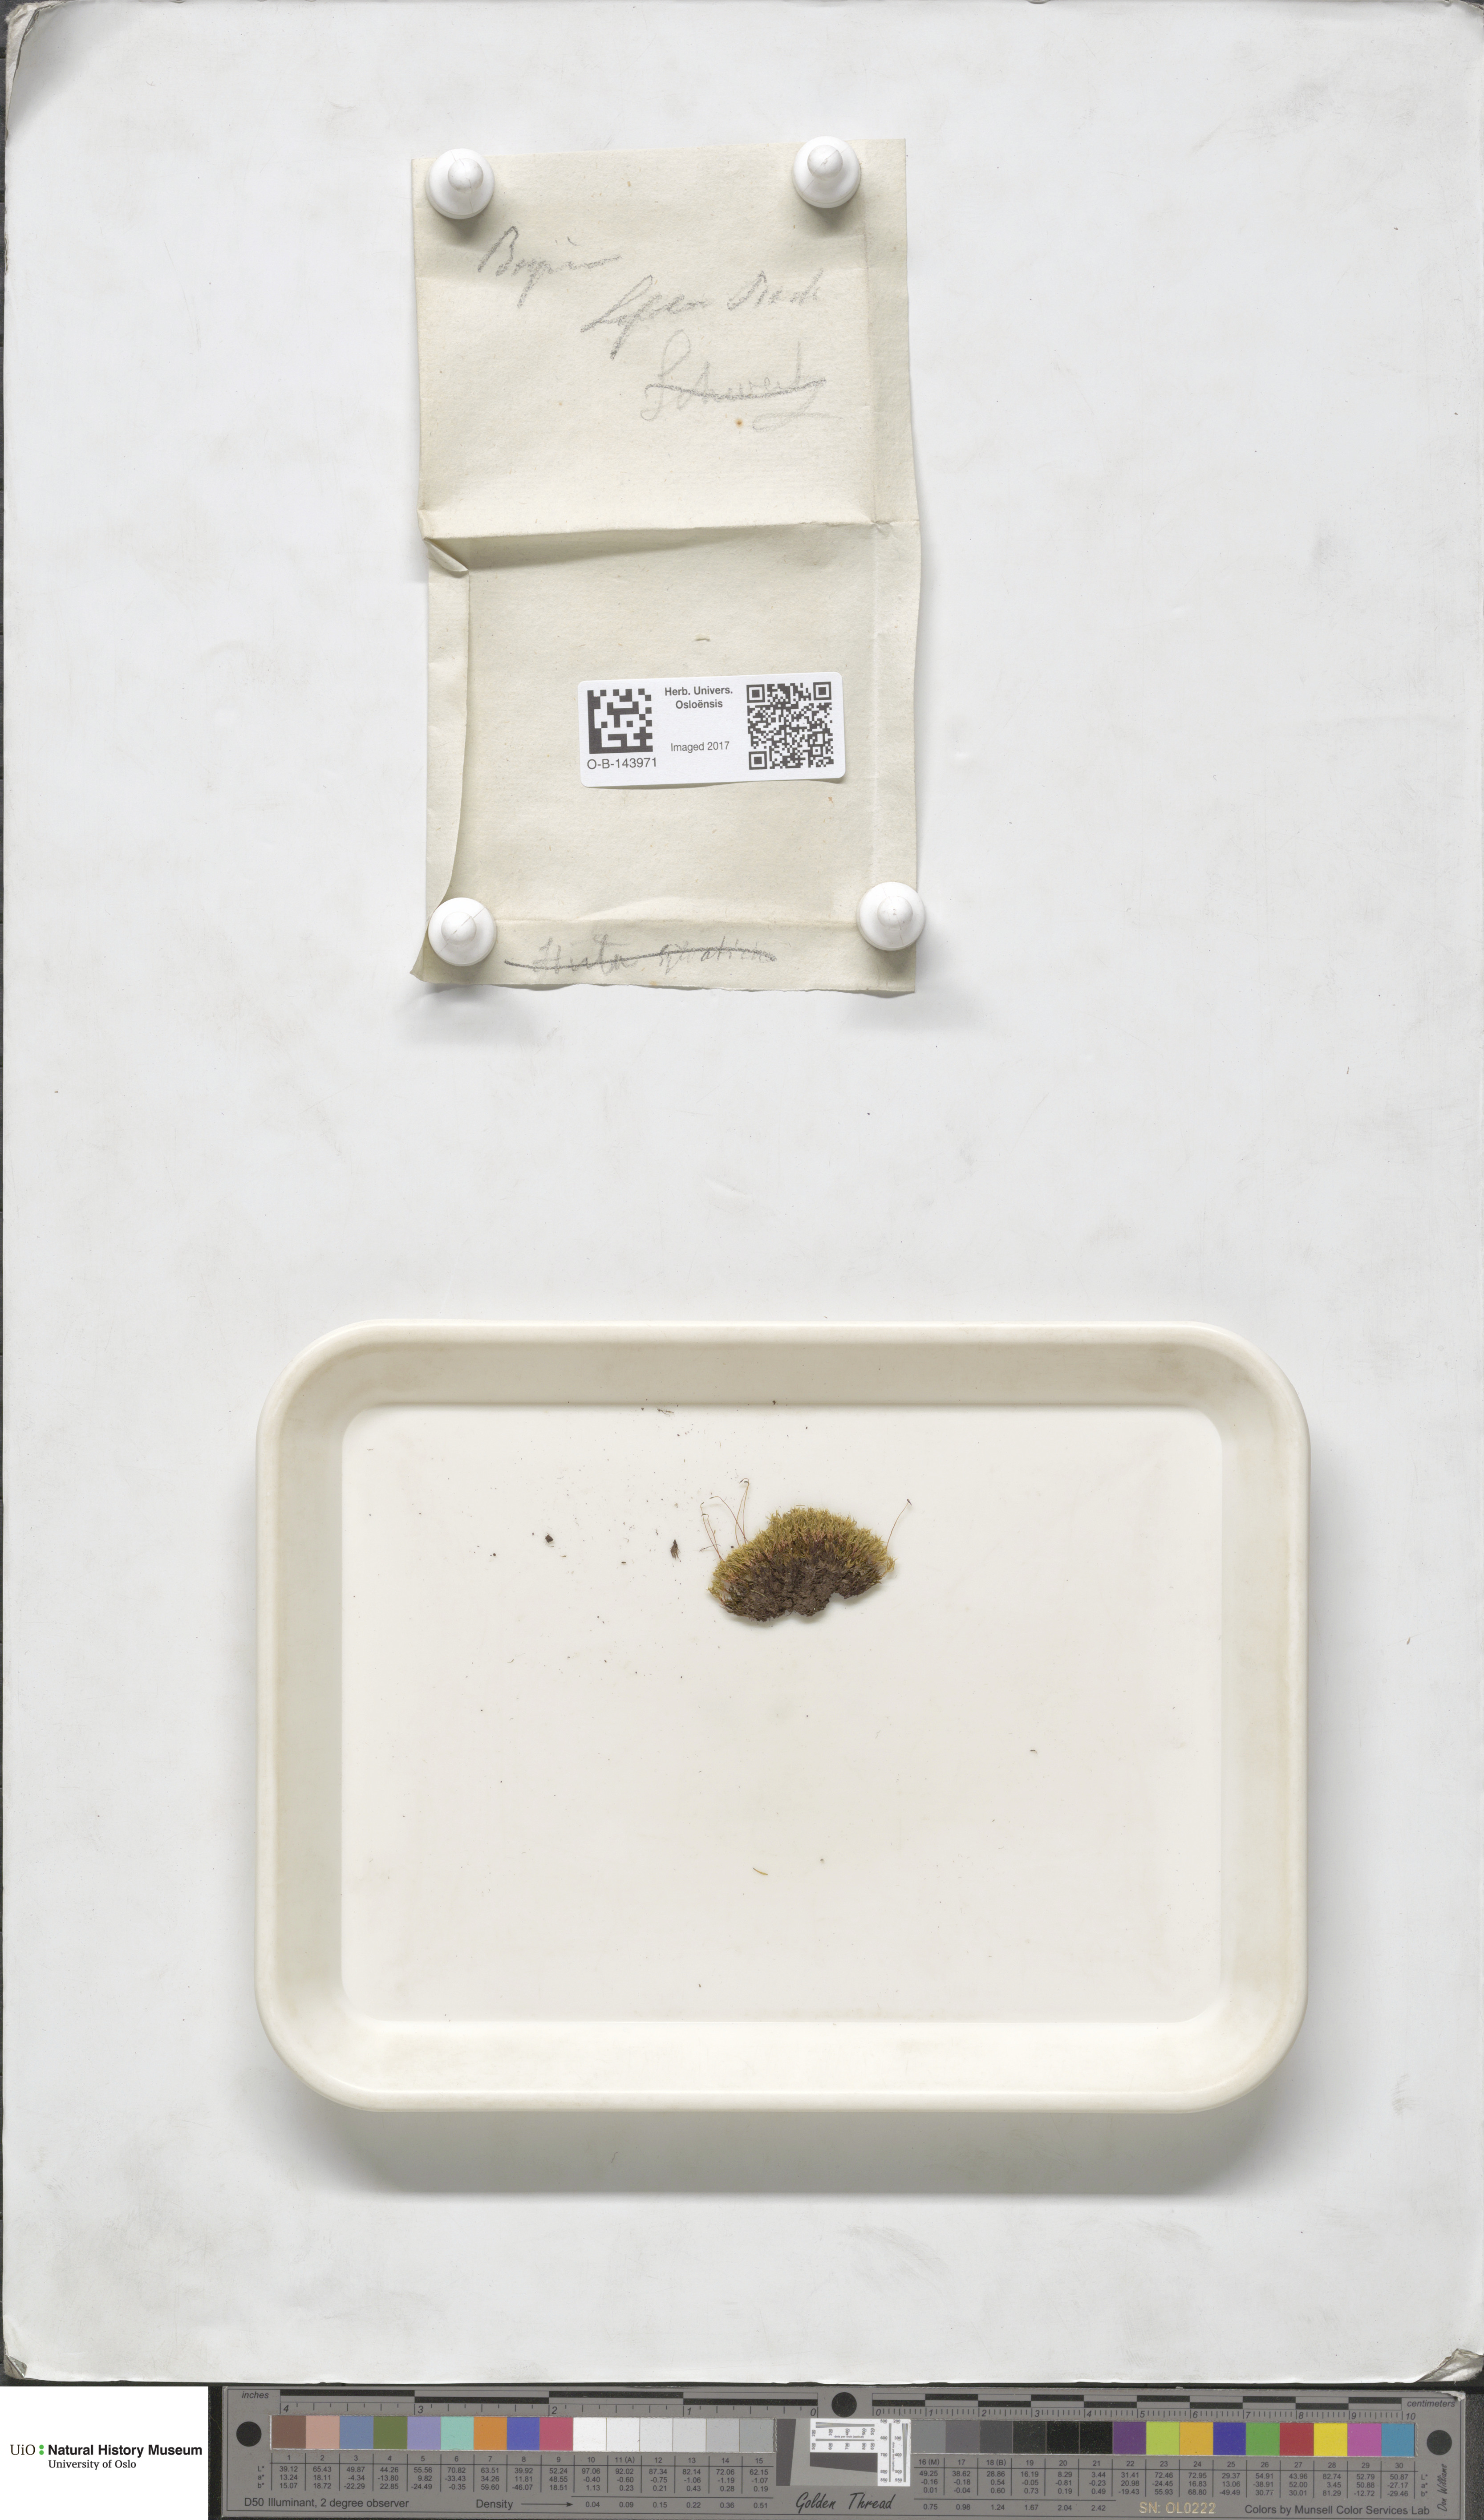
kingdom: Plantae
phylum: Bryophyta
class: Bryopsida
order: Bryales
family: Bryaceae
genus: Bryum
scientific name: Bryum
